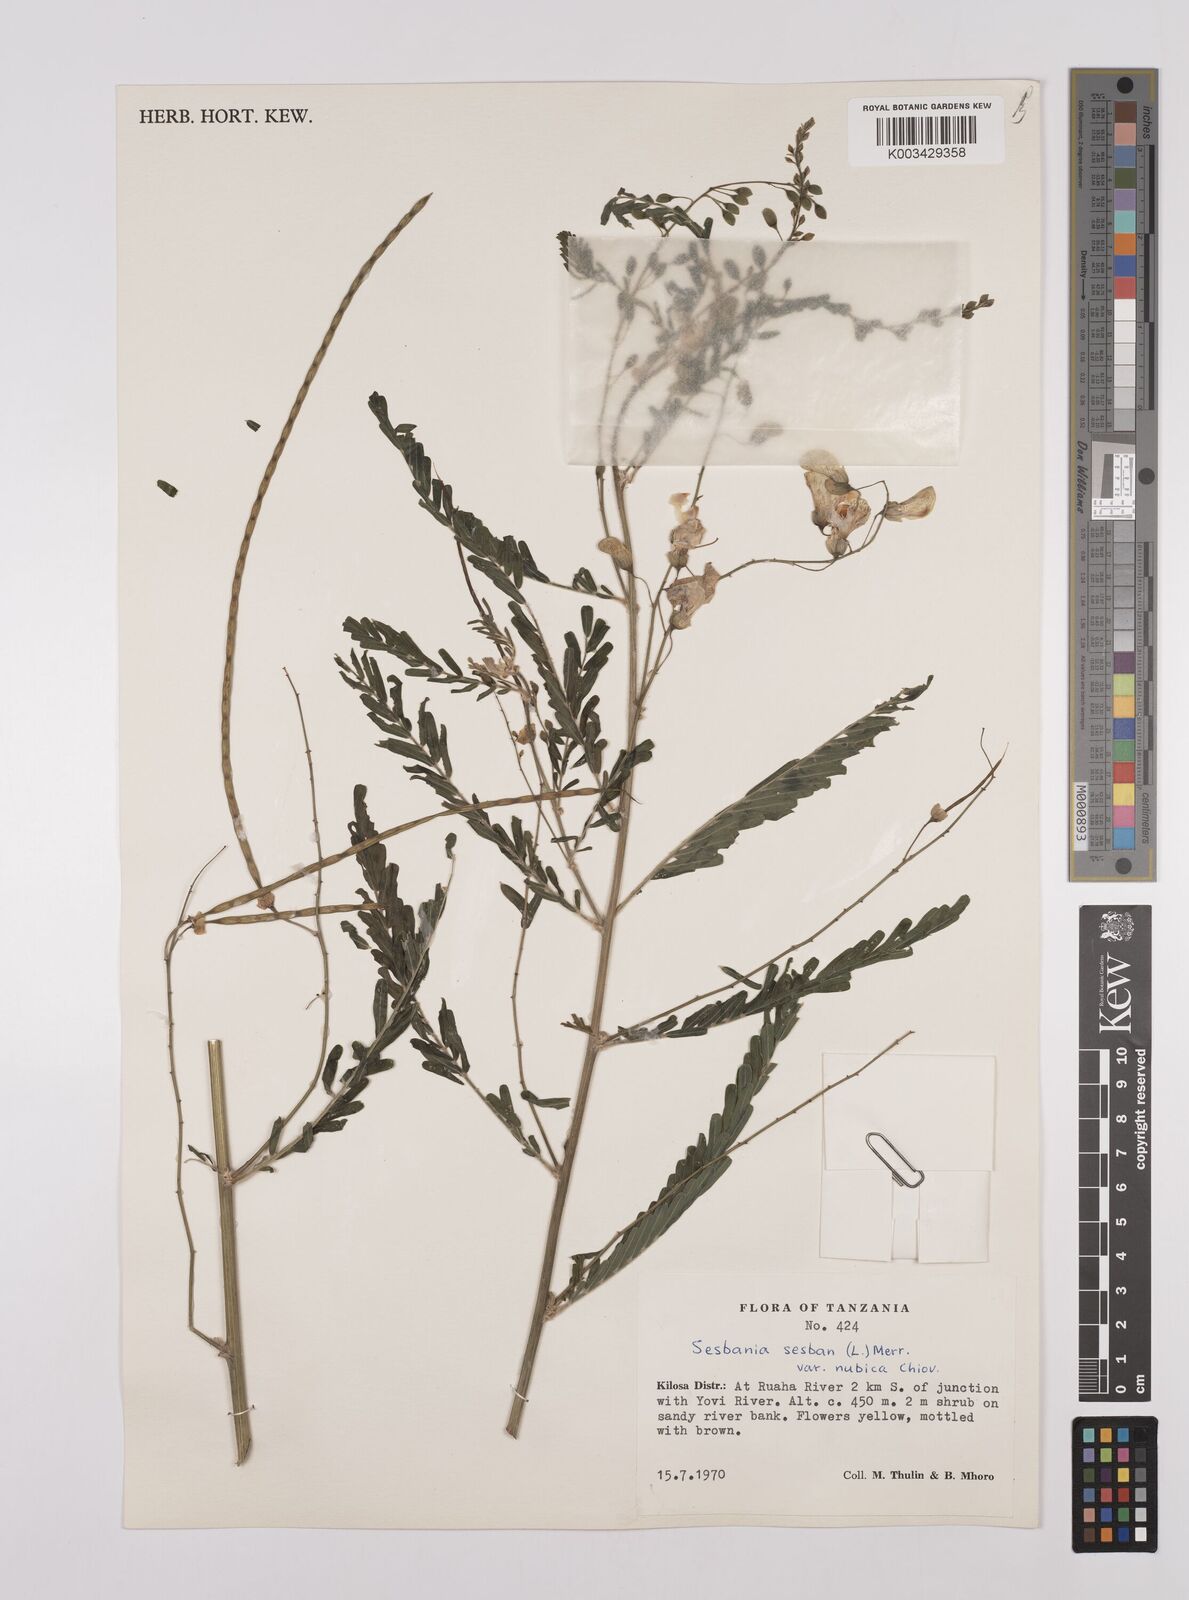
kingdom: Plantae
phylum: Tracheophyta
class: Magnoliopsida
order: Fabales
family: Fabaceae
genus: Sesbania
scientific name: Sesbania sesban
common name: Egyptian sesban
